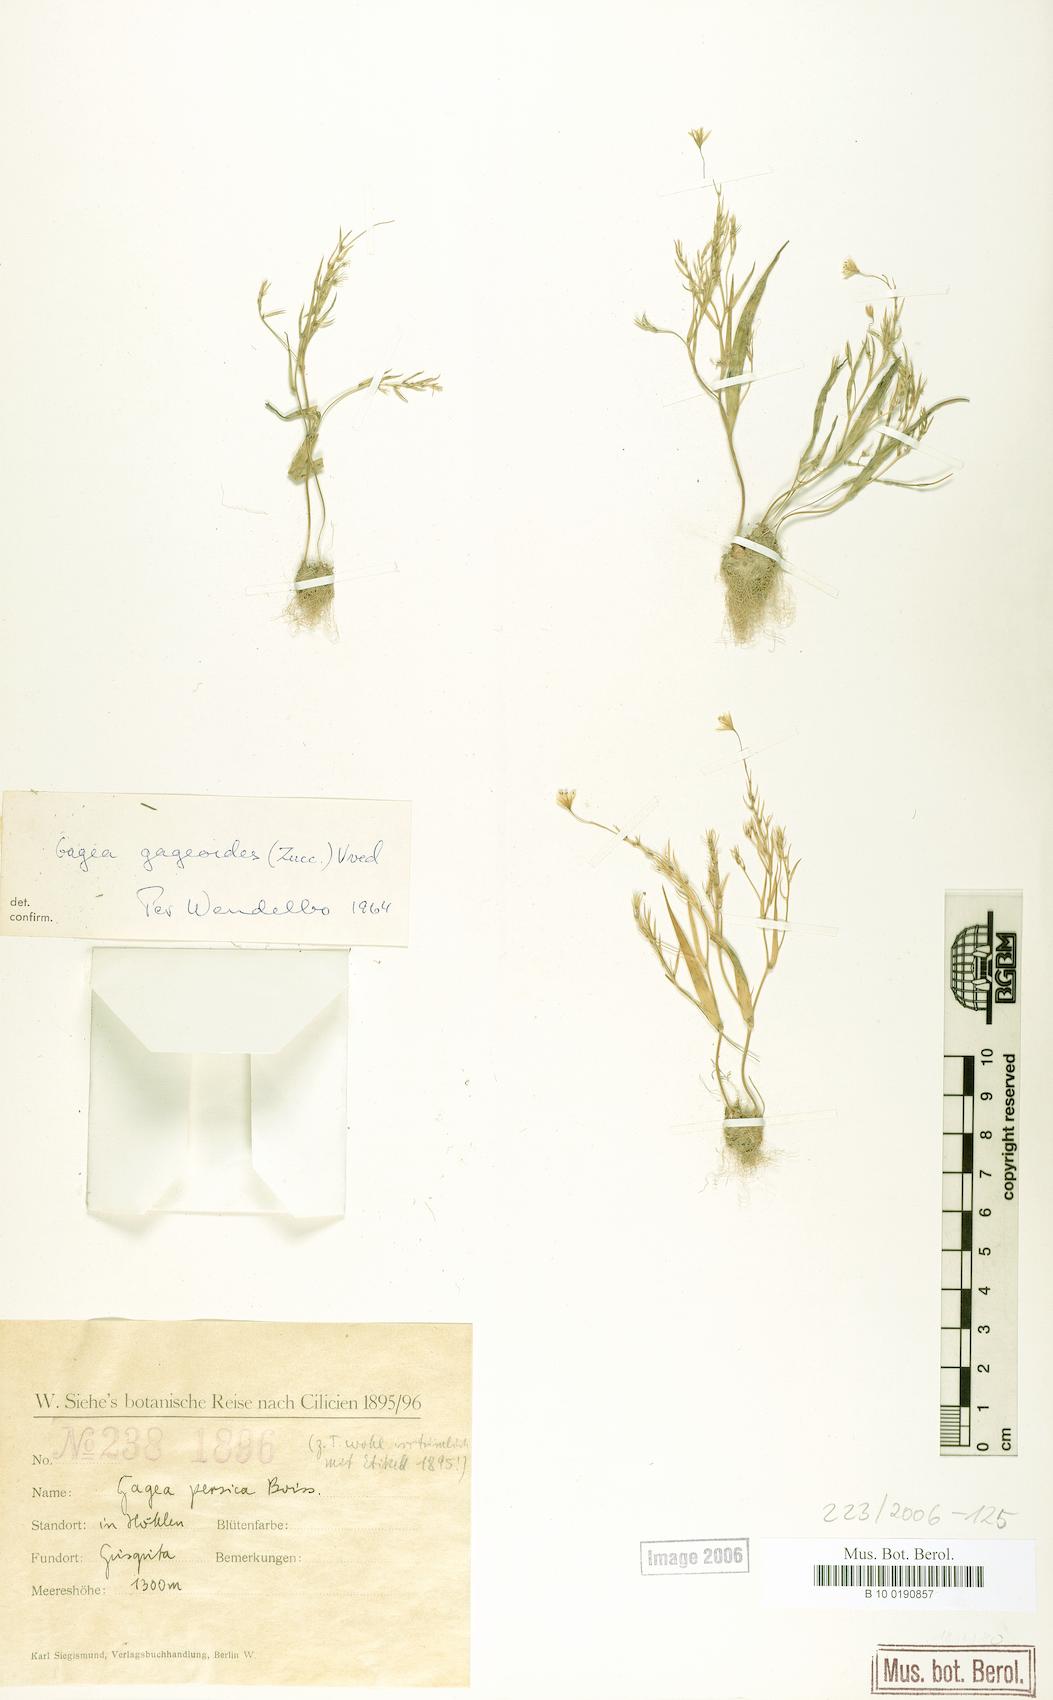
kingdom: Plantae
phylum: Tracheophyta
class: Liliopsida
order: Liliales
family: Liliaceae
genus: Gagea
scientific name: Gagea gageoides
